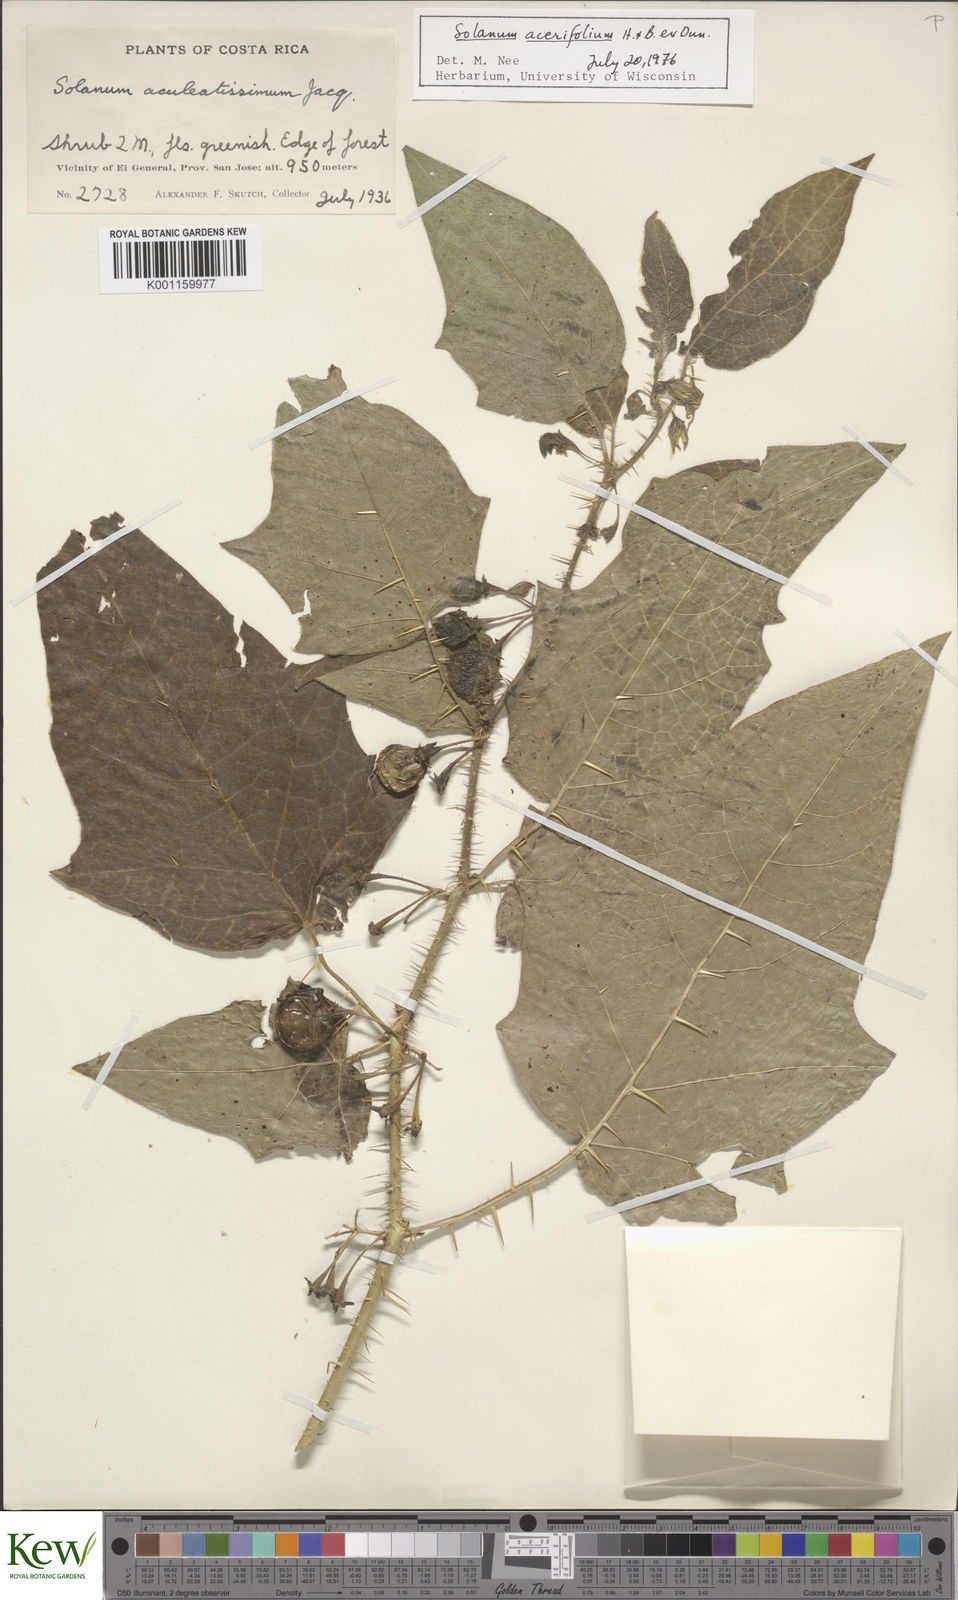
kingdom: Plantae
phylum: Tracheophyta
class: Magnoliopsida
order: Solanales
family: Solanaceae
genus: Solanum
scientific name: Solanum acerifolium
